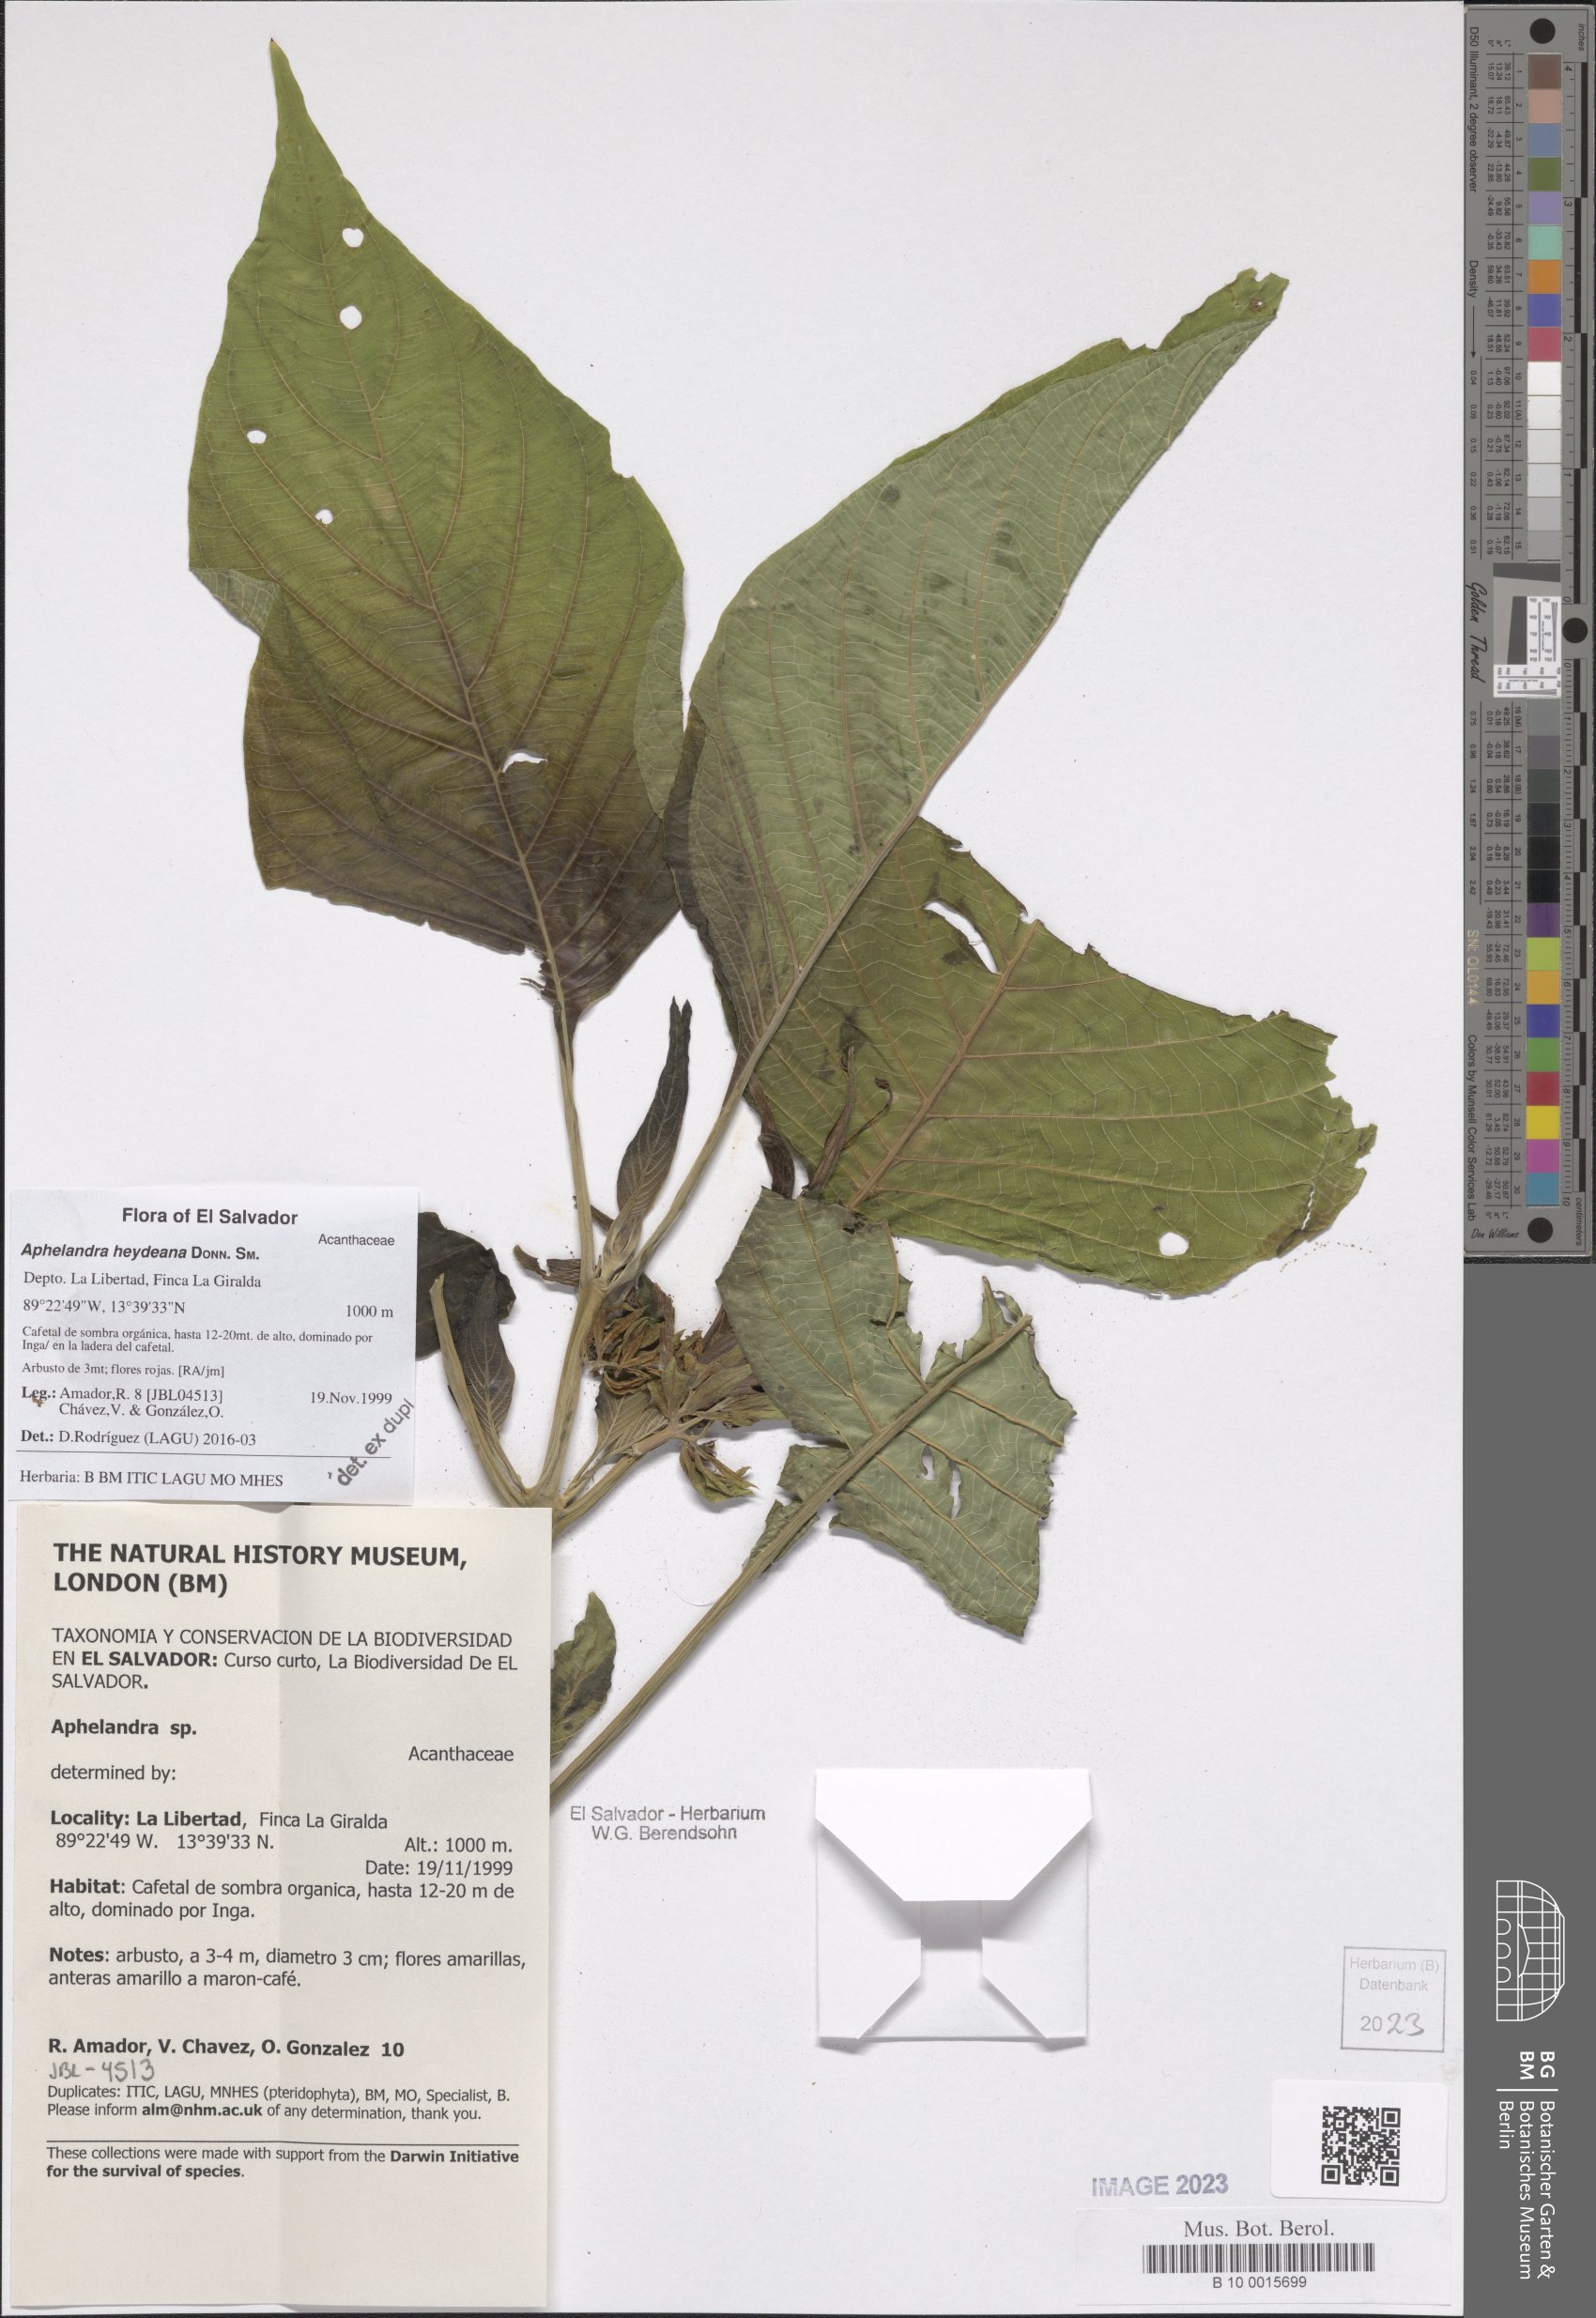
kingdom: Plantae
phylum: Tracheophyta
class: Magnoliopsida
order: Lamiales
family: Acanthaceae
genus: Aphelandra
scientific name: Aphelandra heydeana
